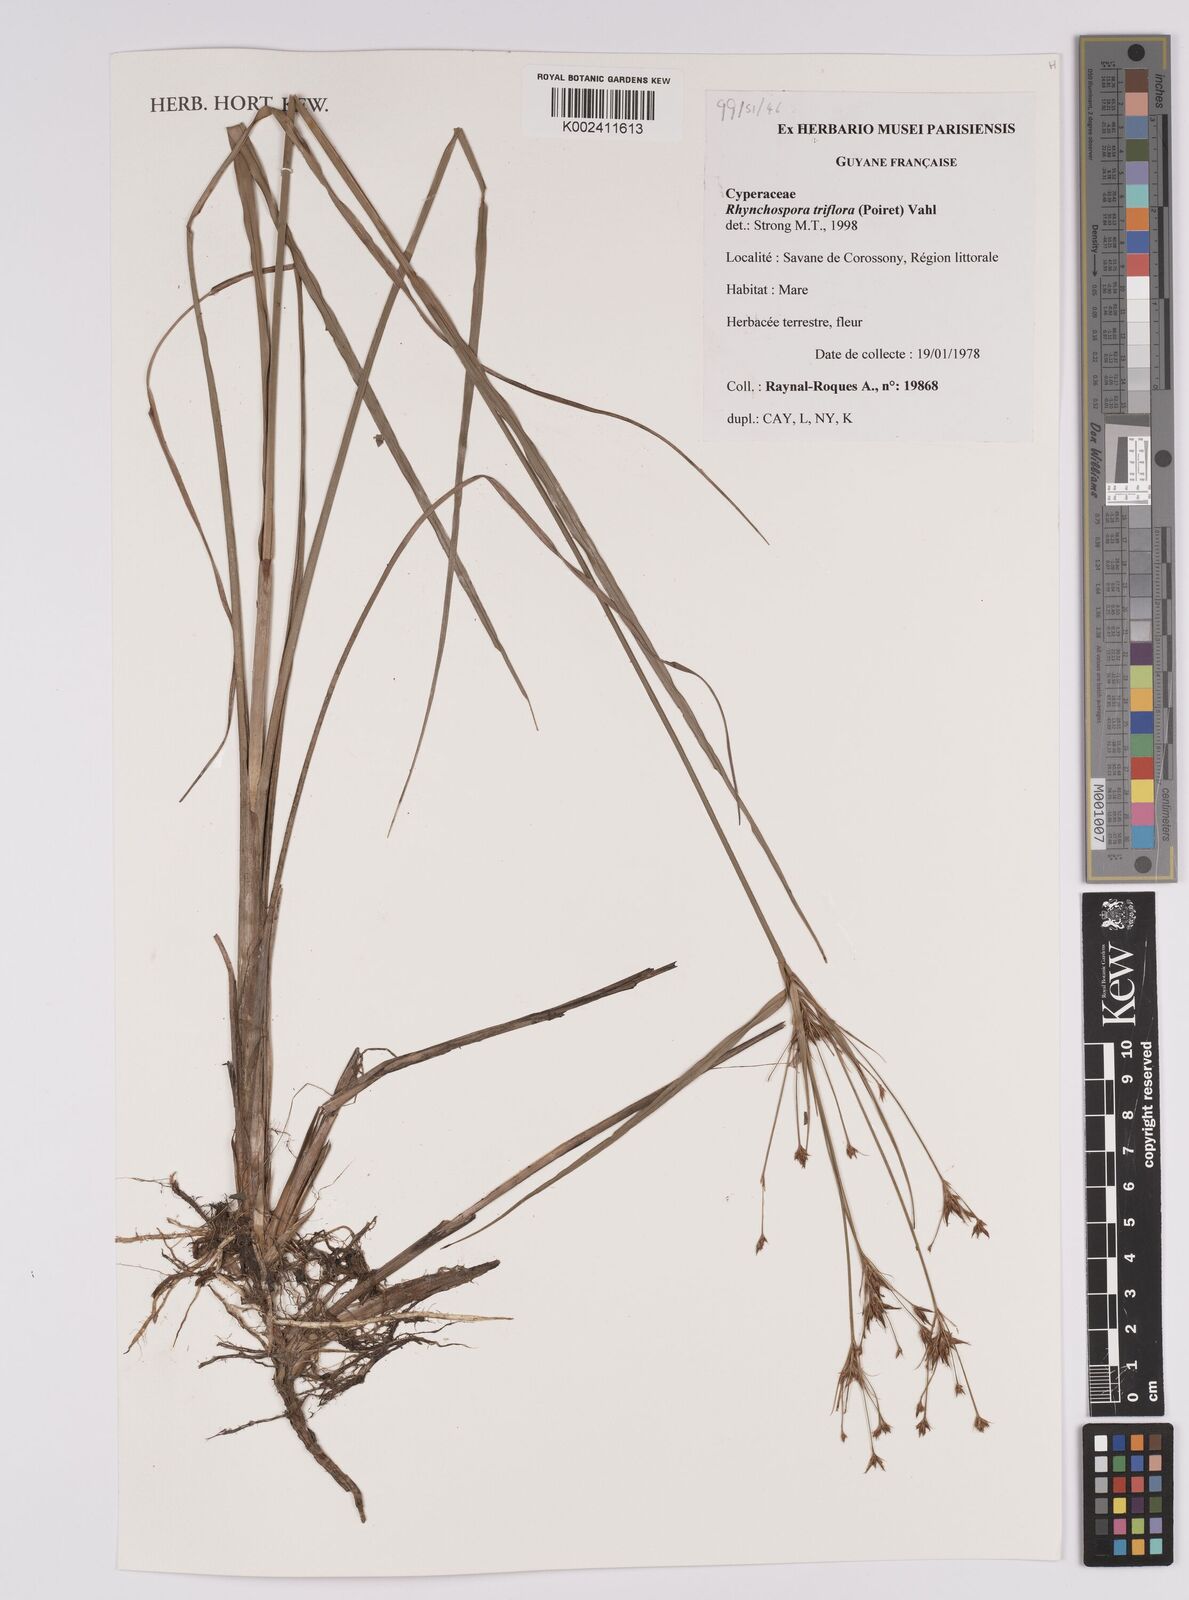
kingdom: Plantae
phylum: Tracheophyta
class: Liliopsida
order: Poales
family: Cyperaceae
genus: Rhynchospora
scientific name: Rhynchospora triflora
